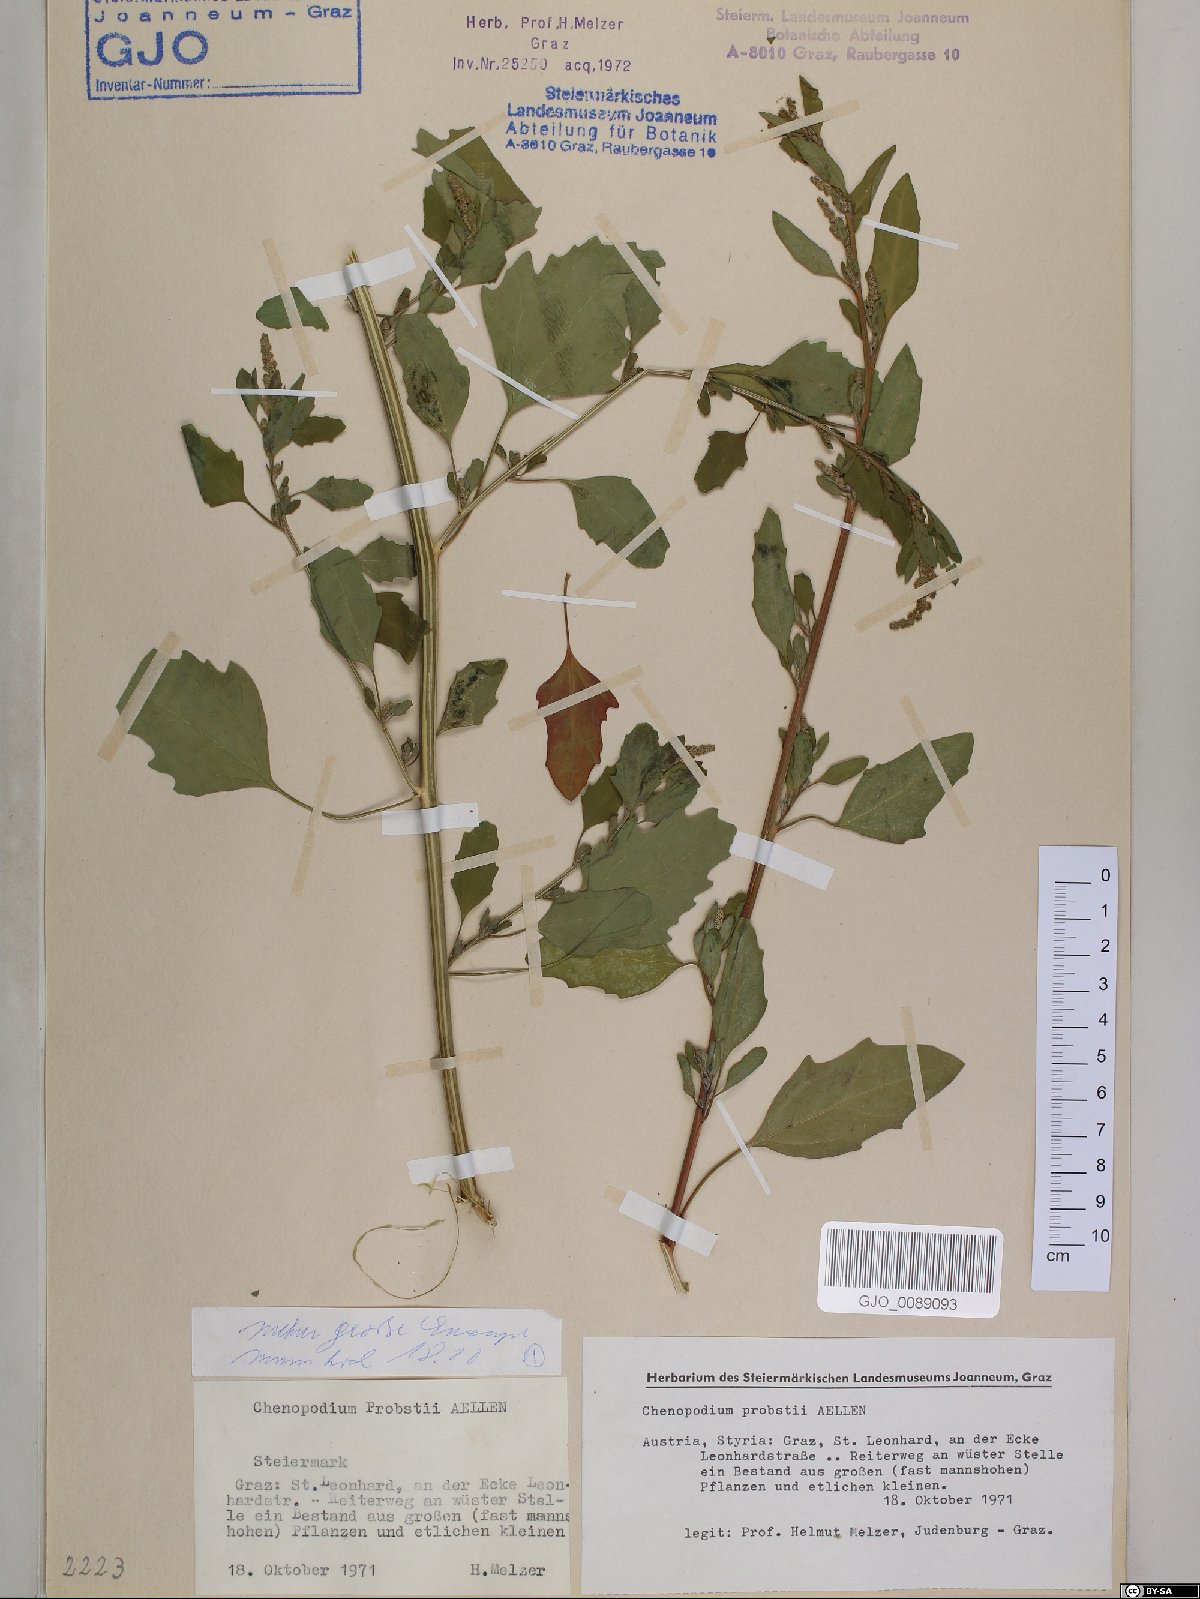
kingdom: Plantae
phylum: Tracheophyta
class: Magnoliopsida
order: Caryophyllales
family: Amaranthaceae
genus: Chenopodium
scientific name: Chenopodium probstii
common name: Probst's goosefoot
